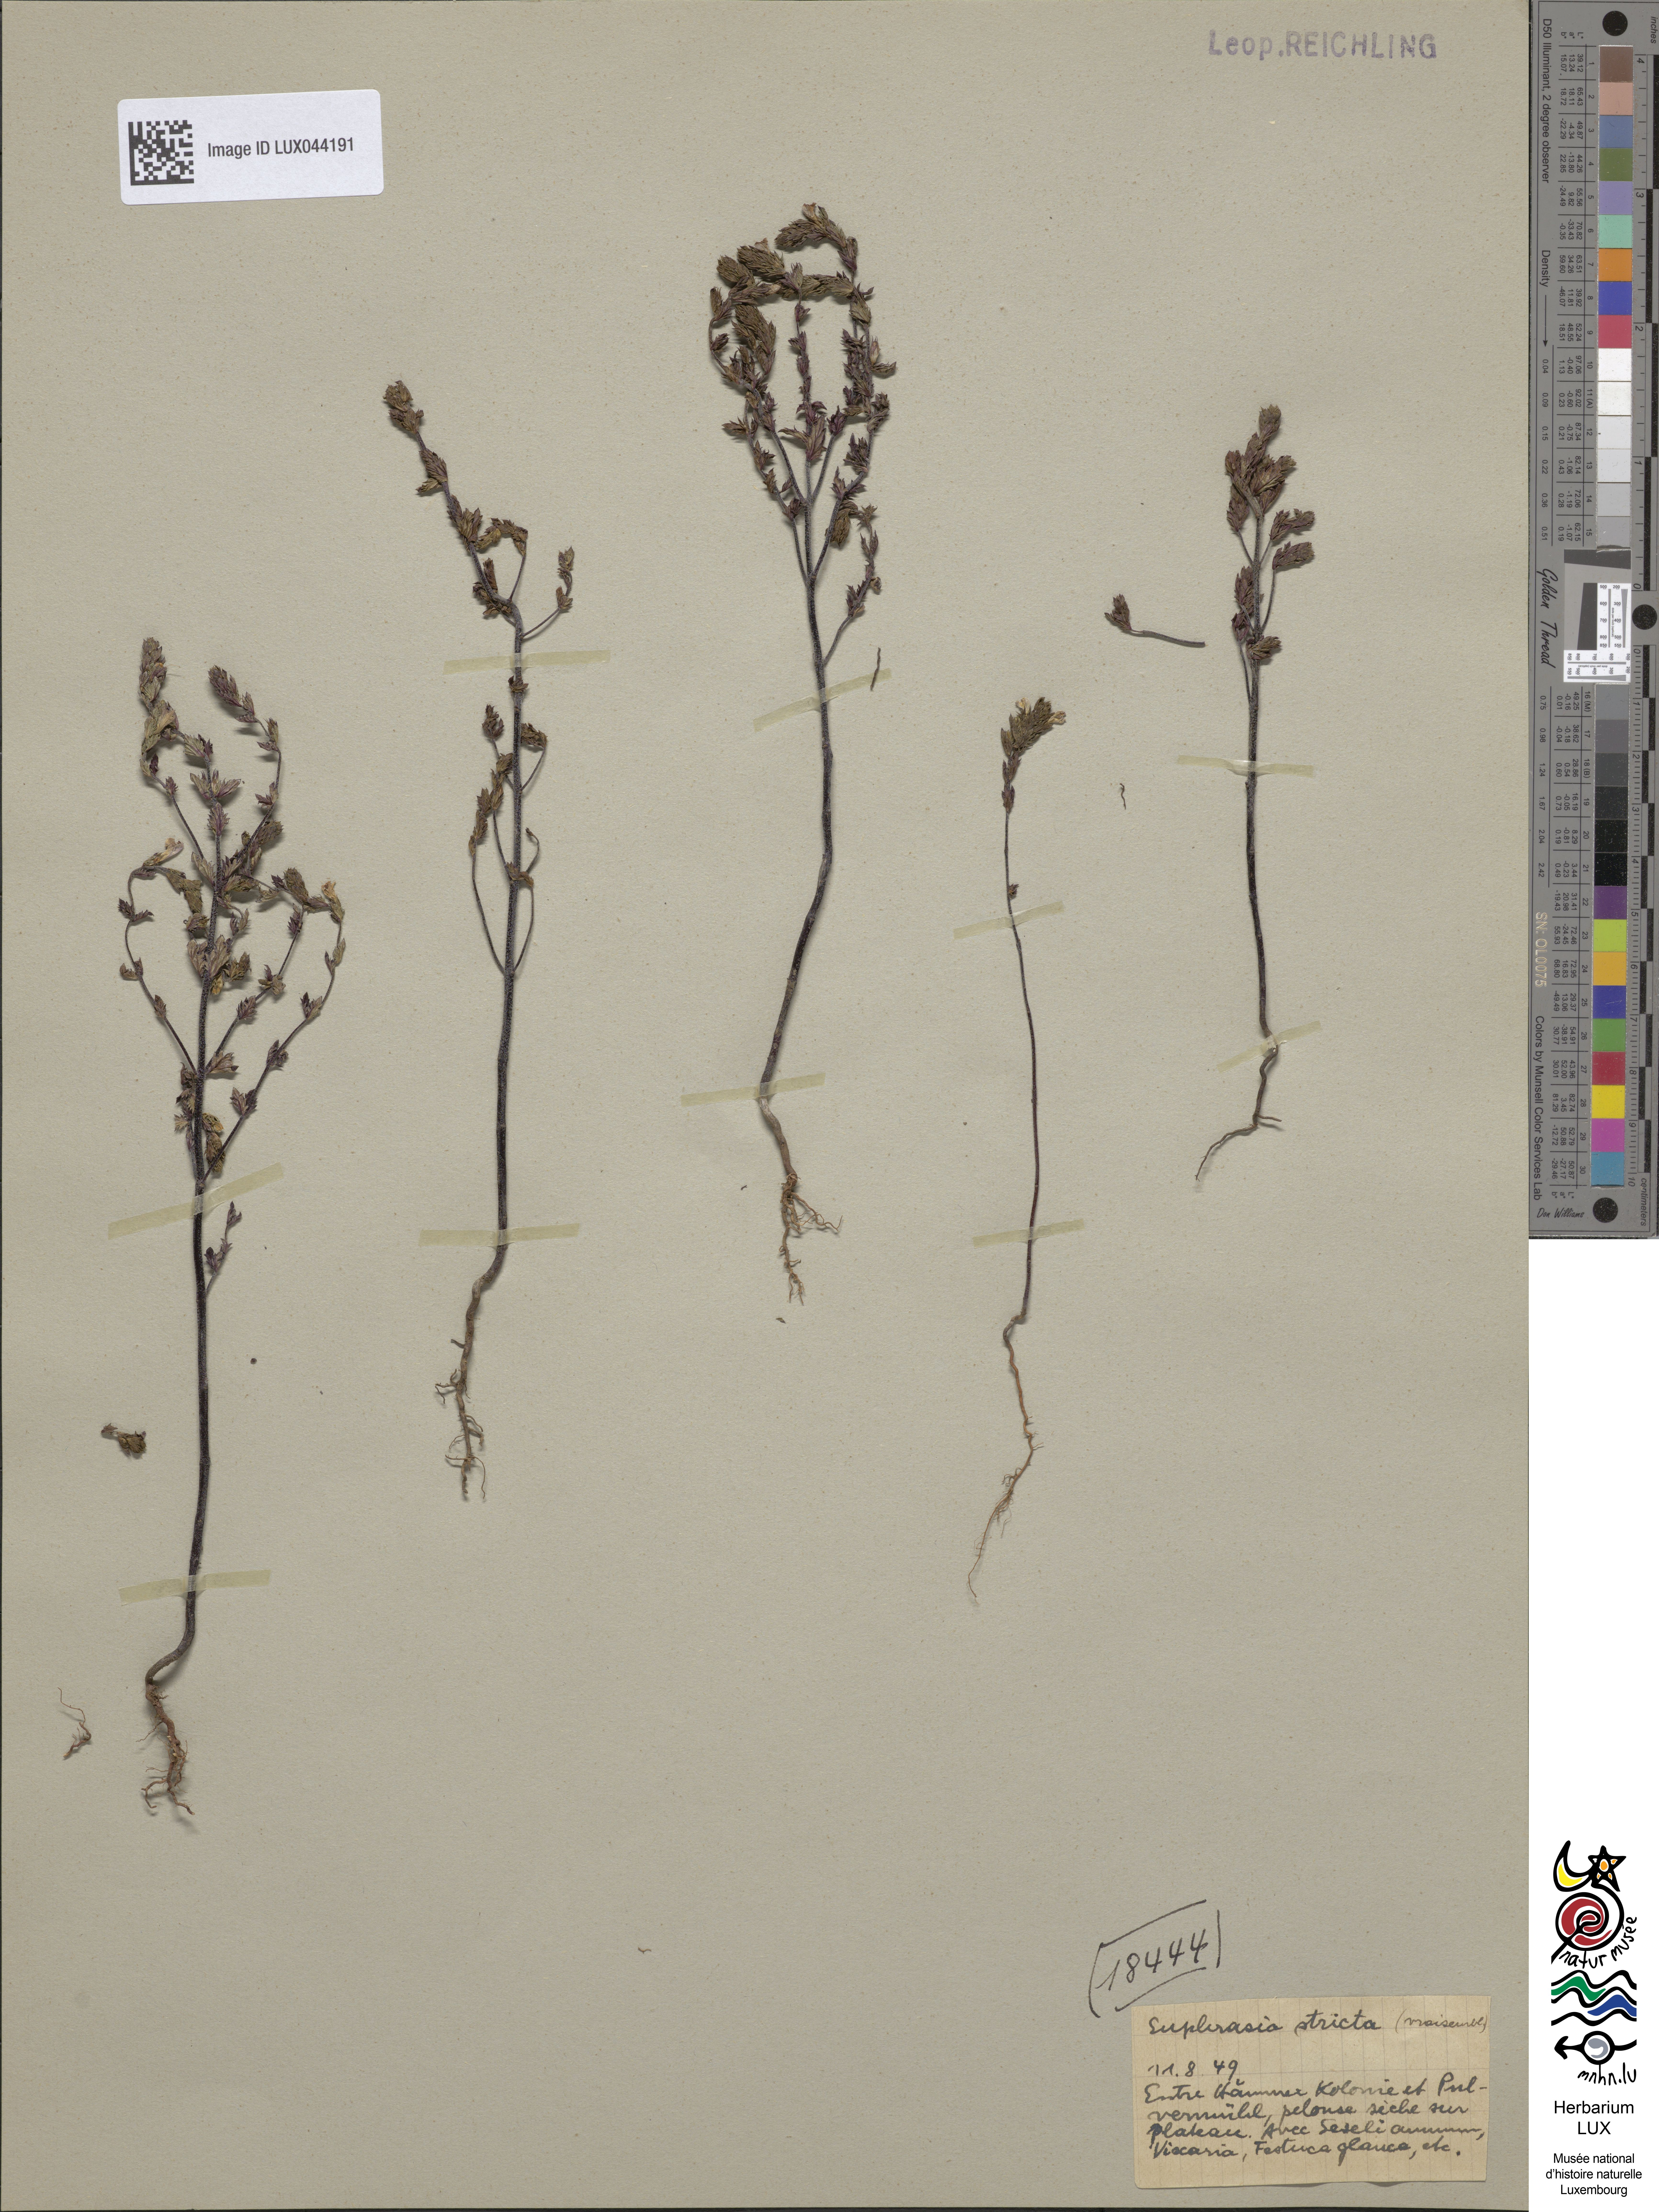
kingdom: Plantae
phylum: Tracheophyta
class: Magnoliopsida
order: Lamiales
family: Orobanchaceae
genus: Euphrasia
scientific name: Euphrasia stricta
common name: Drug eyebright
